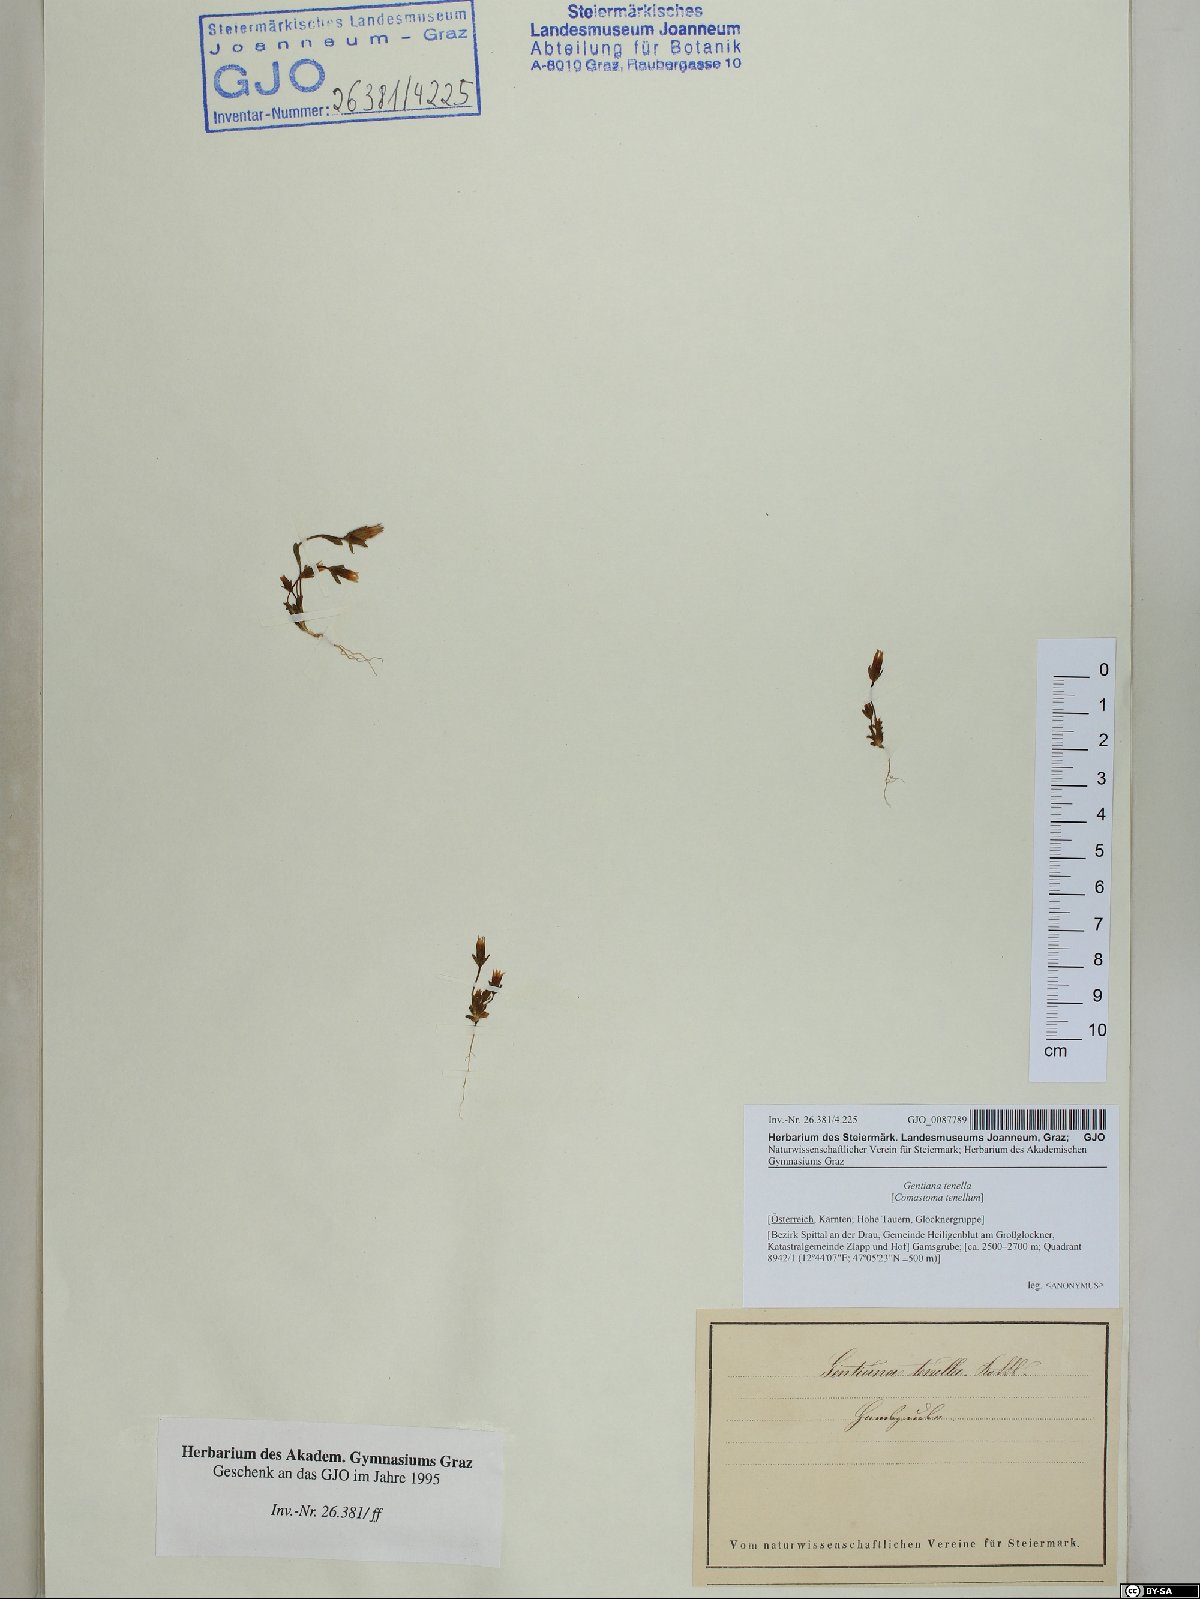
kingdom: Plantae
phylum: Tracheophyta
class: Magnoliopsida
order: Gentianales
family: Gentianaceae
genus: Comastoma
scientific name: Comastoma tenellum
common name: Dane's dwarf gentian
